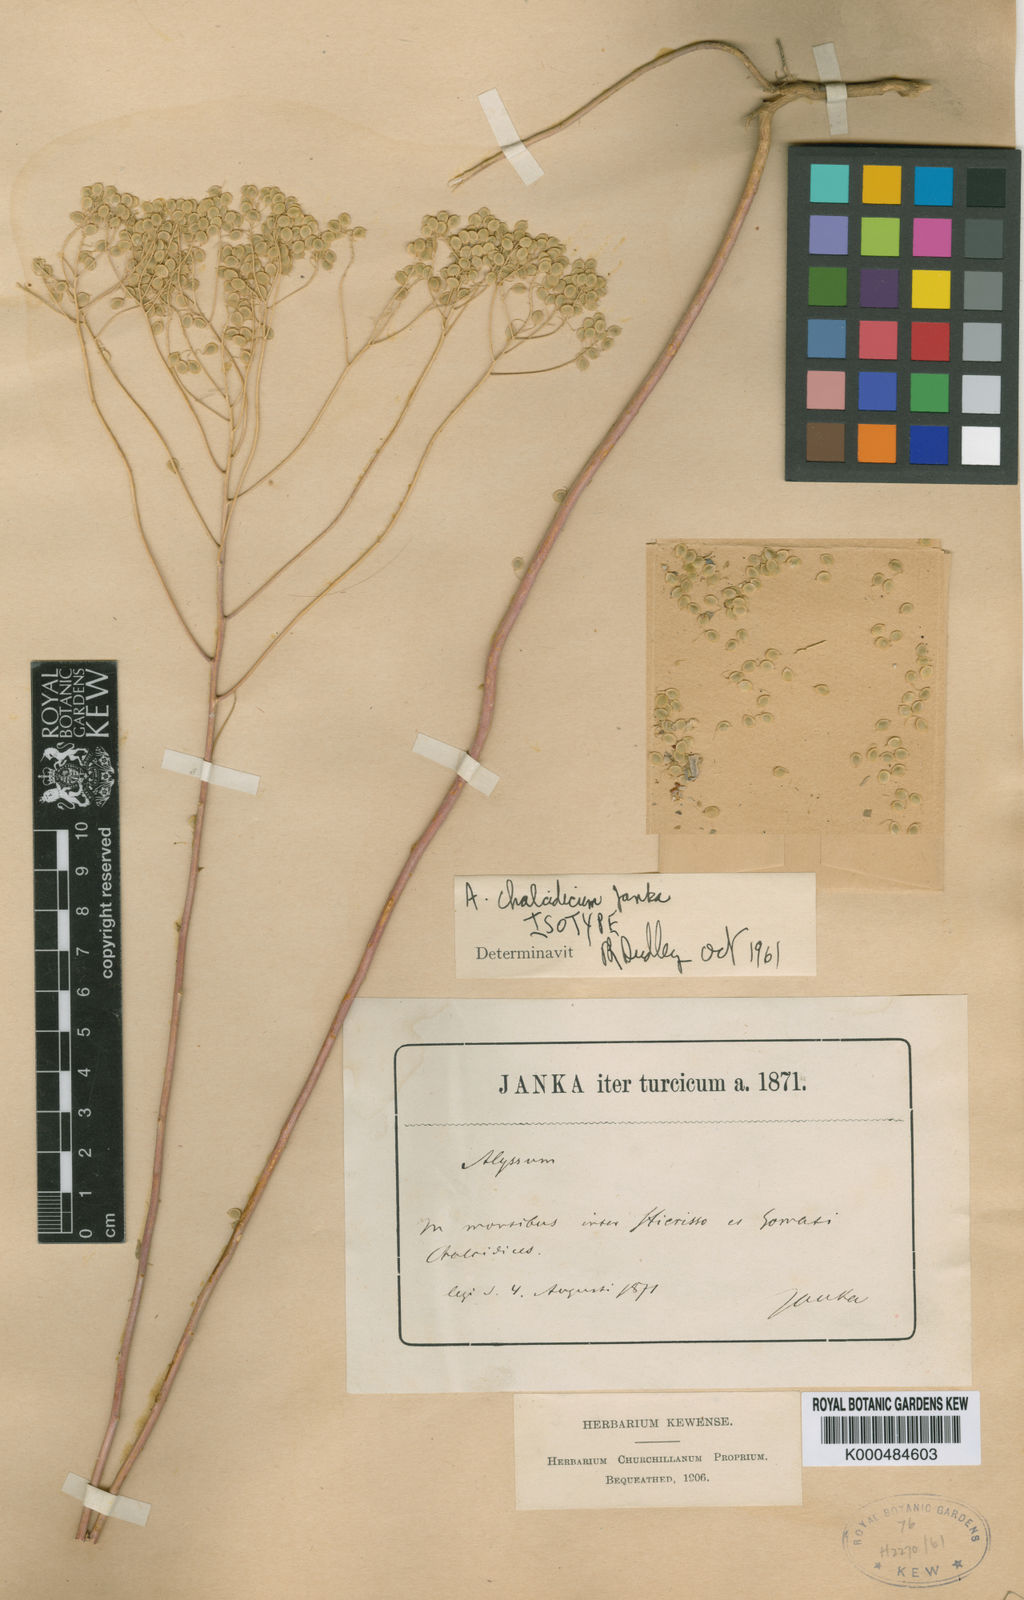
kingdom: Plantae
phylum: Tracheophyta
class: Magnoliopsida
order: Brassicales
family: Brassicaceae
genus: Odontarrhena
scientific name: Odontarrhena chalcidica
